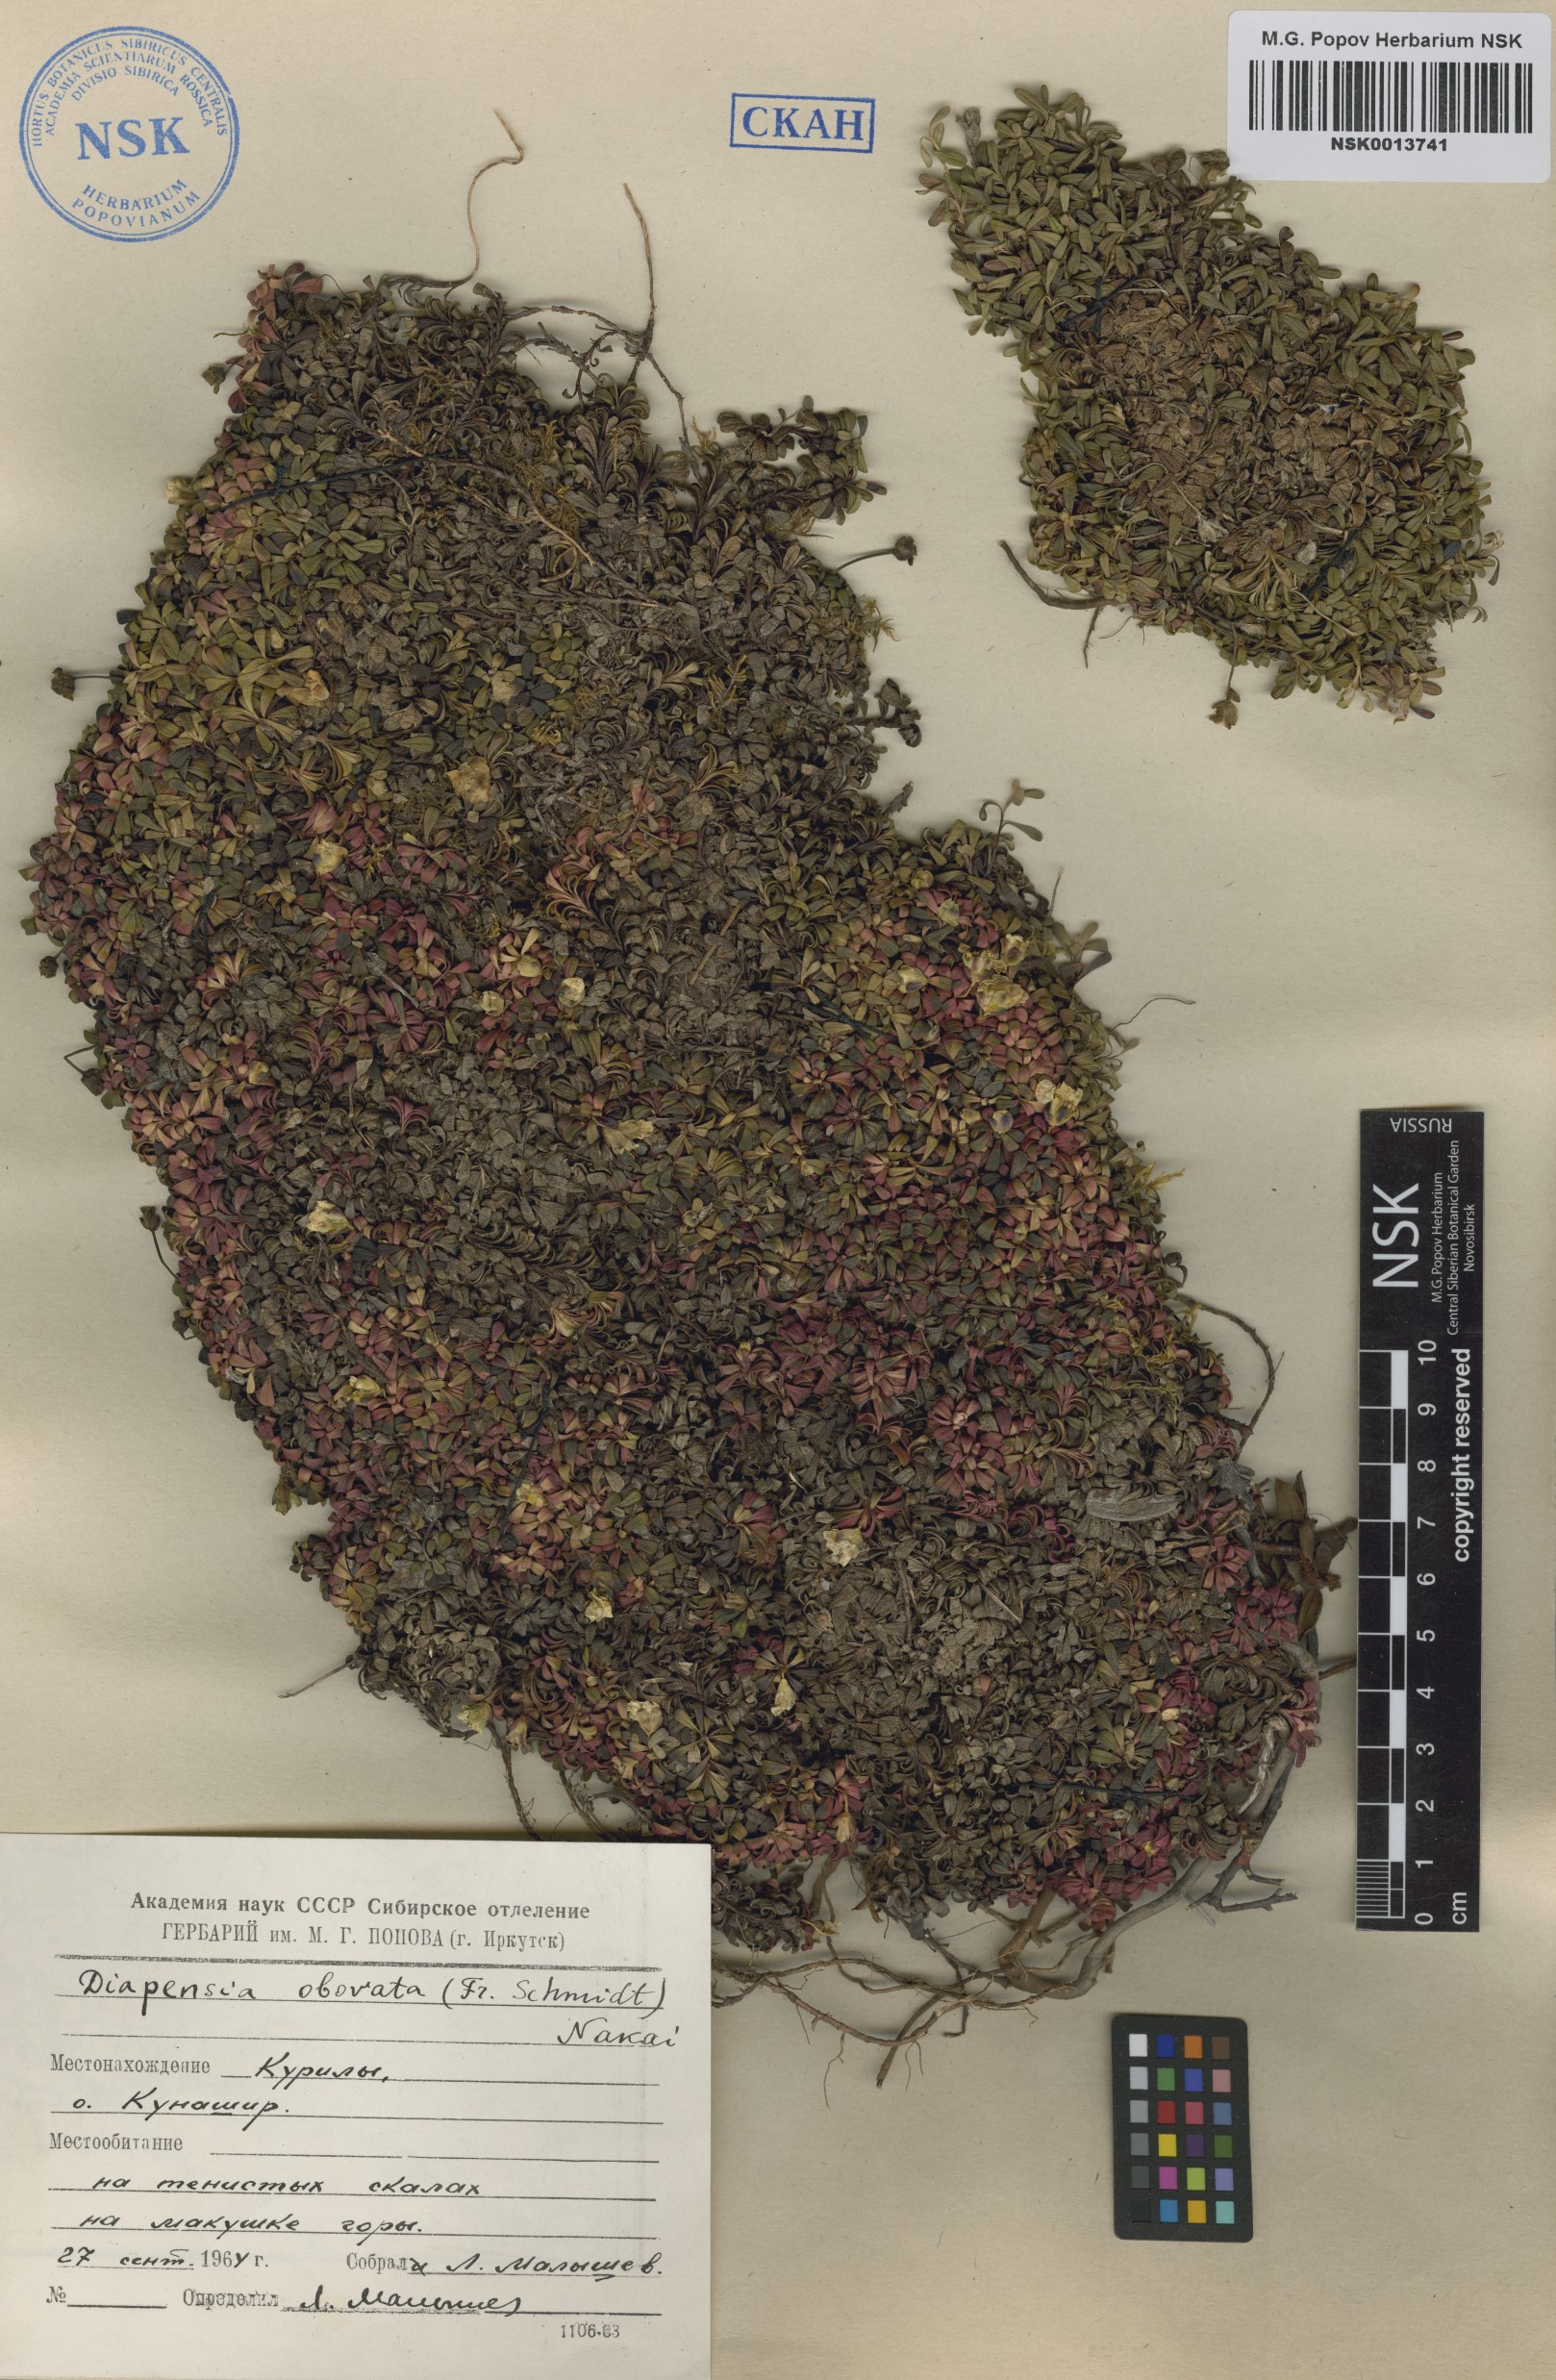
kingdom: Plantae
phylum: Tracheophyta
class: Magnoliopsida
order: Ericales
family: Diapensiaceae
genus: Diapensia
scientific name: Diapensia obovata
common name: Alaska diapensia
